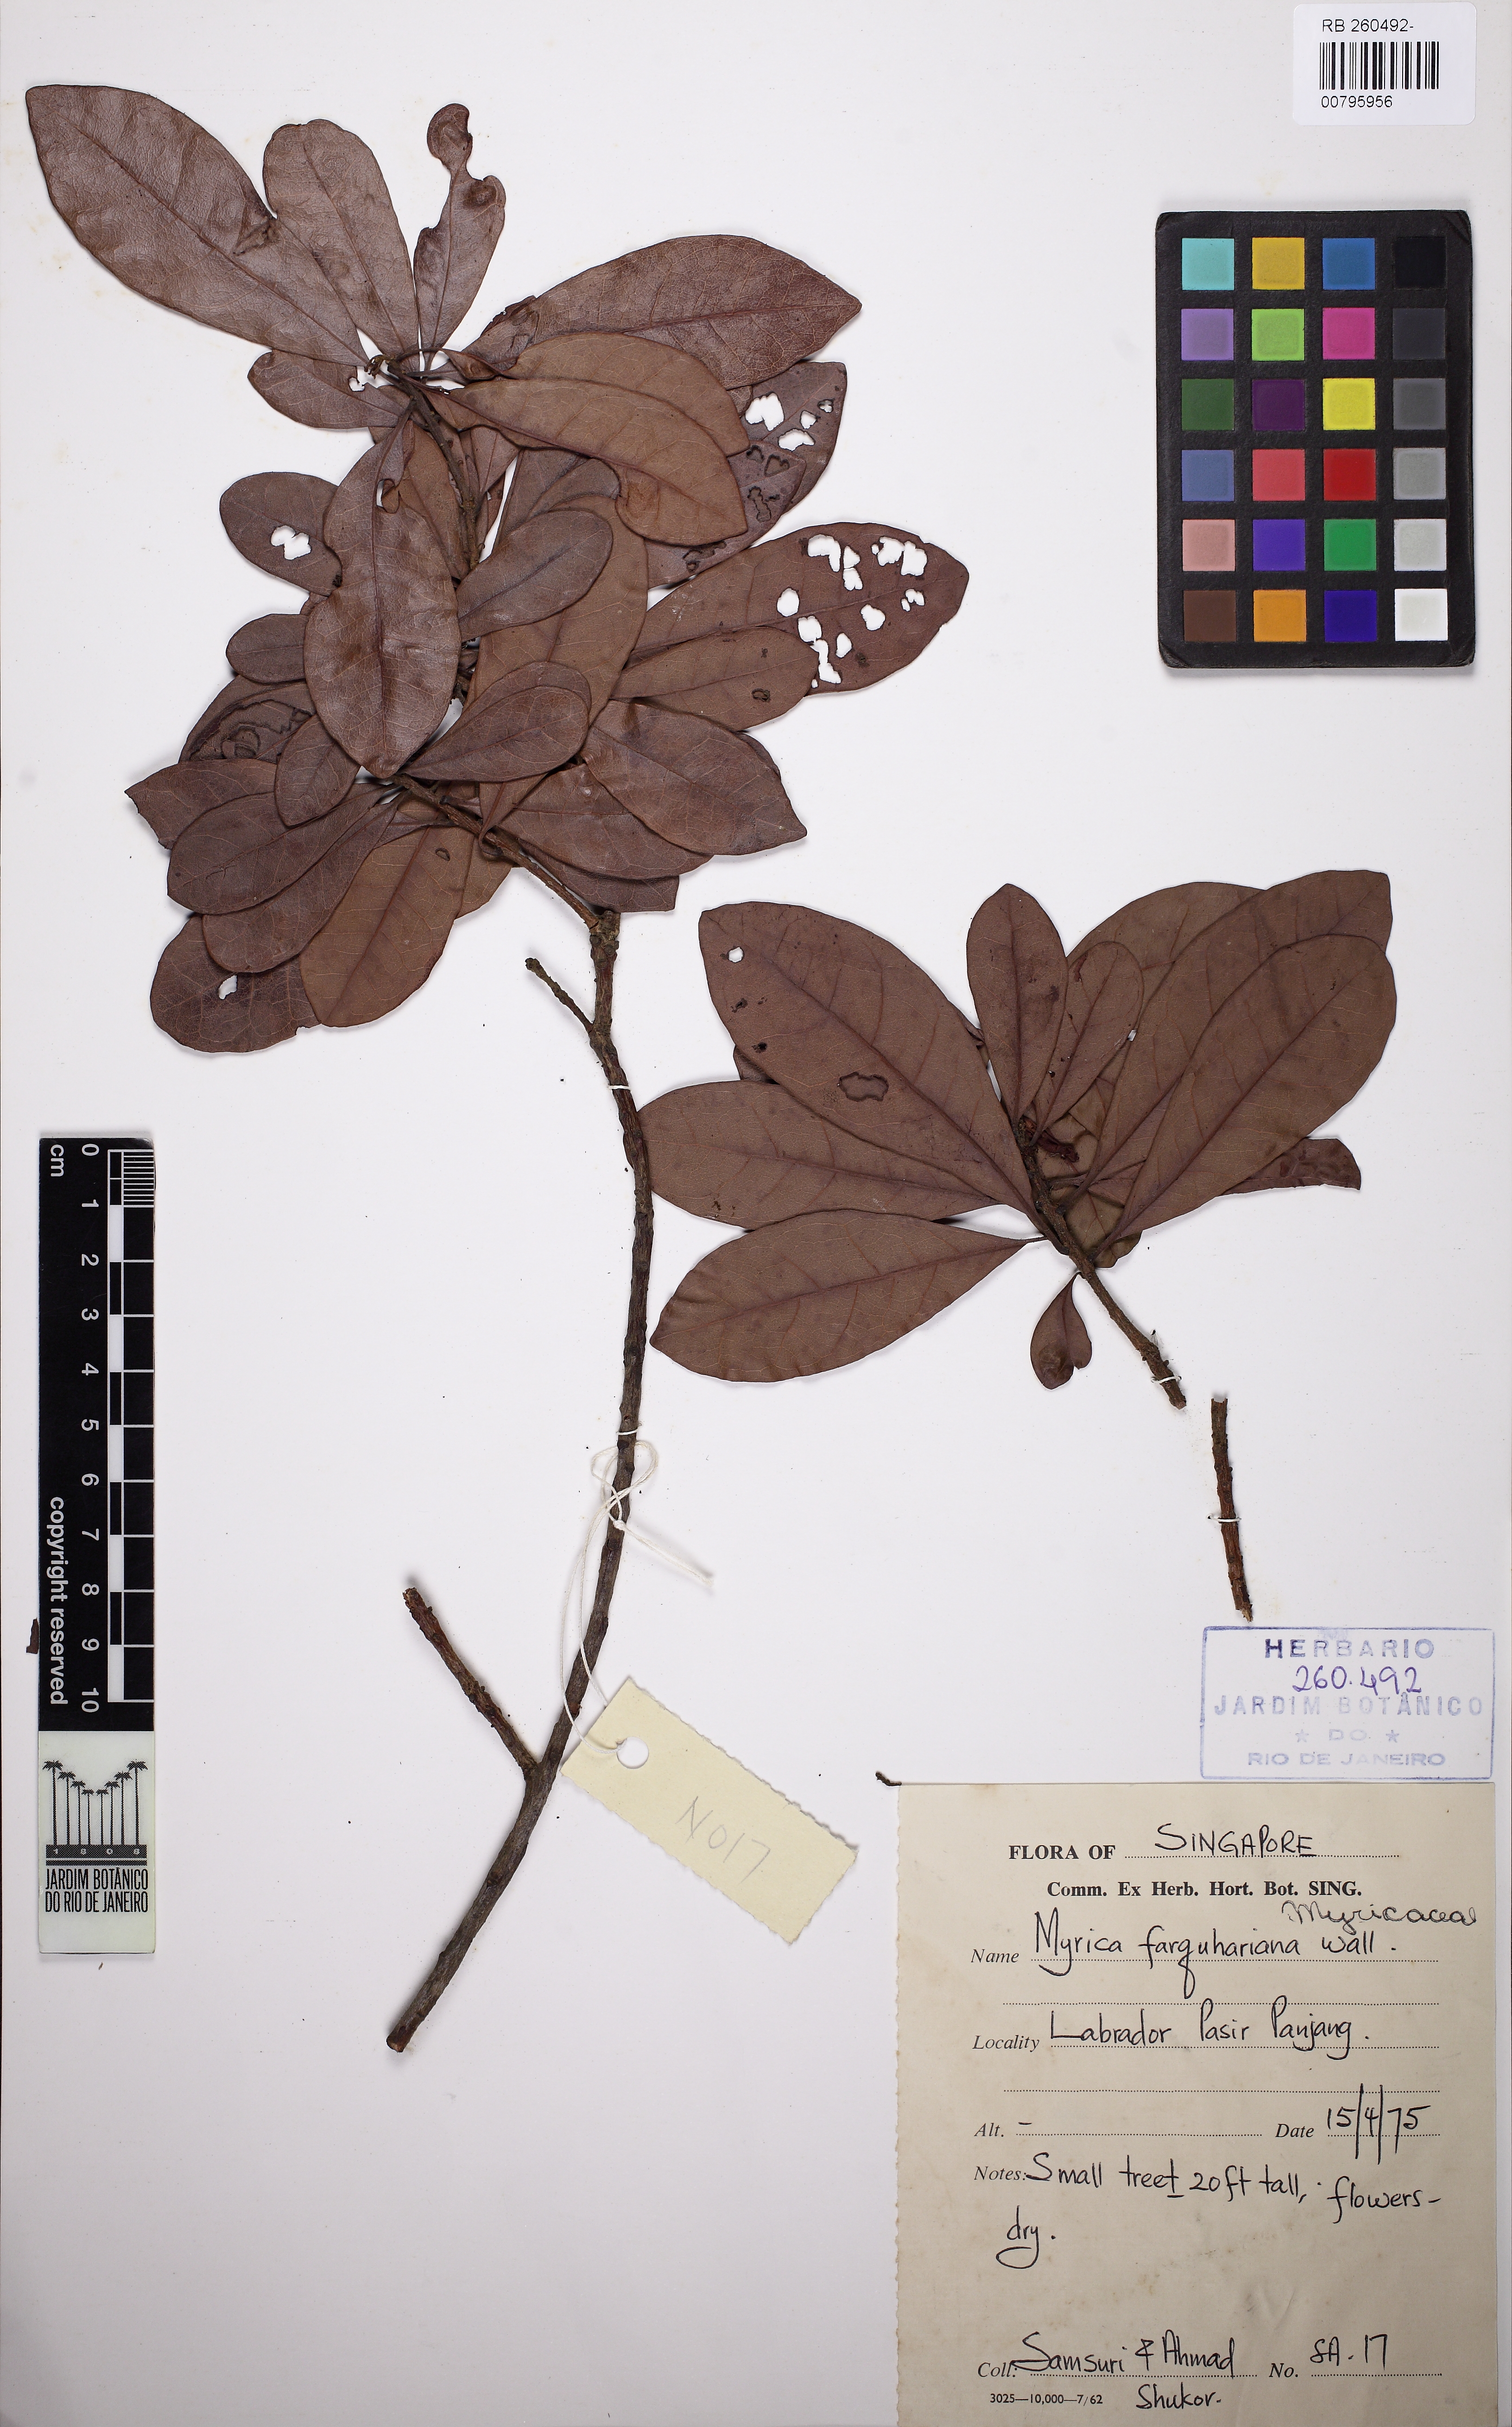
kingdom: Plantae
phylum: Tracheophyta
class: Magnoliopsida
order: Fagales
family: Myricaceae
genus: Myrica
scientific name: Myrica
